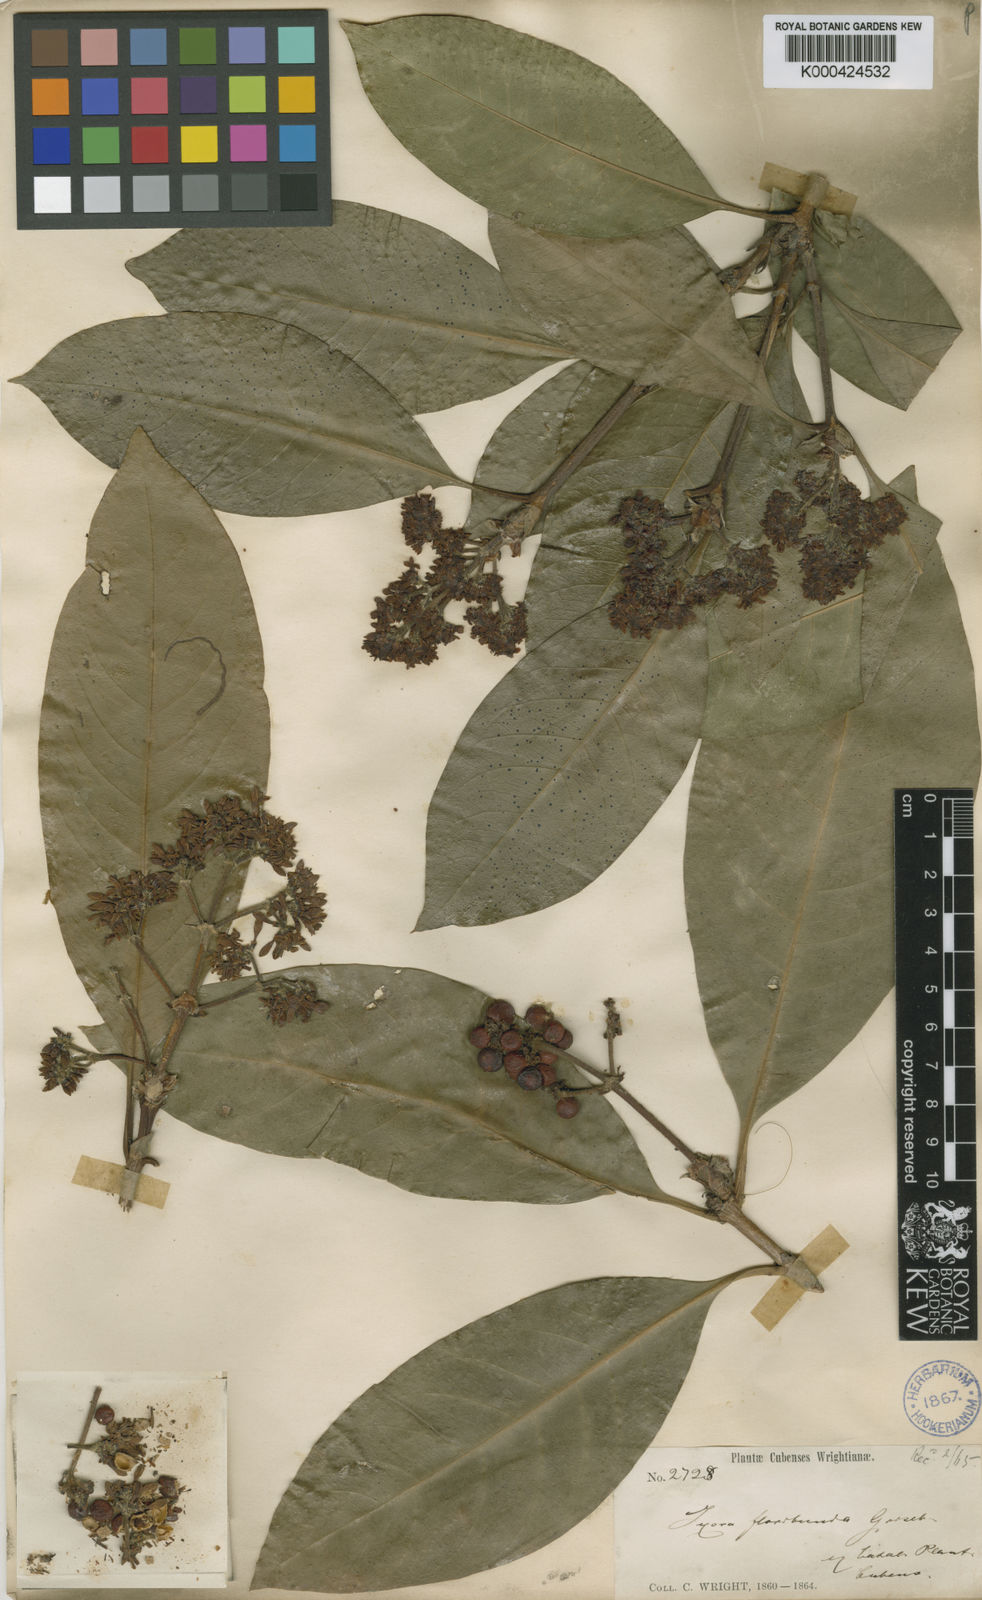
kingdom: Plantae
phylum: Tracheophyta
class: Magnoliopsida
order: Gentianales
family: Rubiaceae
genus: Ixora
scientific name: Ixora floribunda
